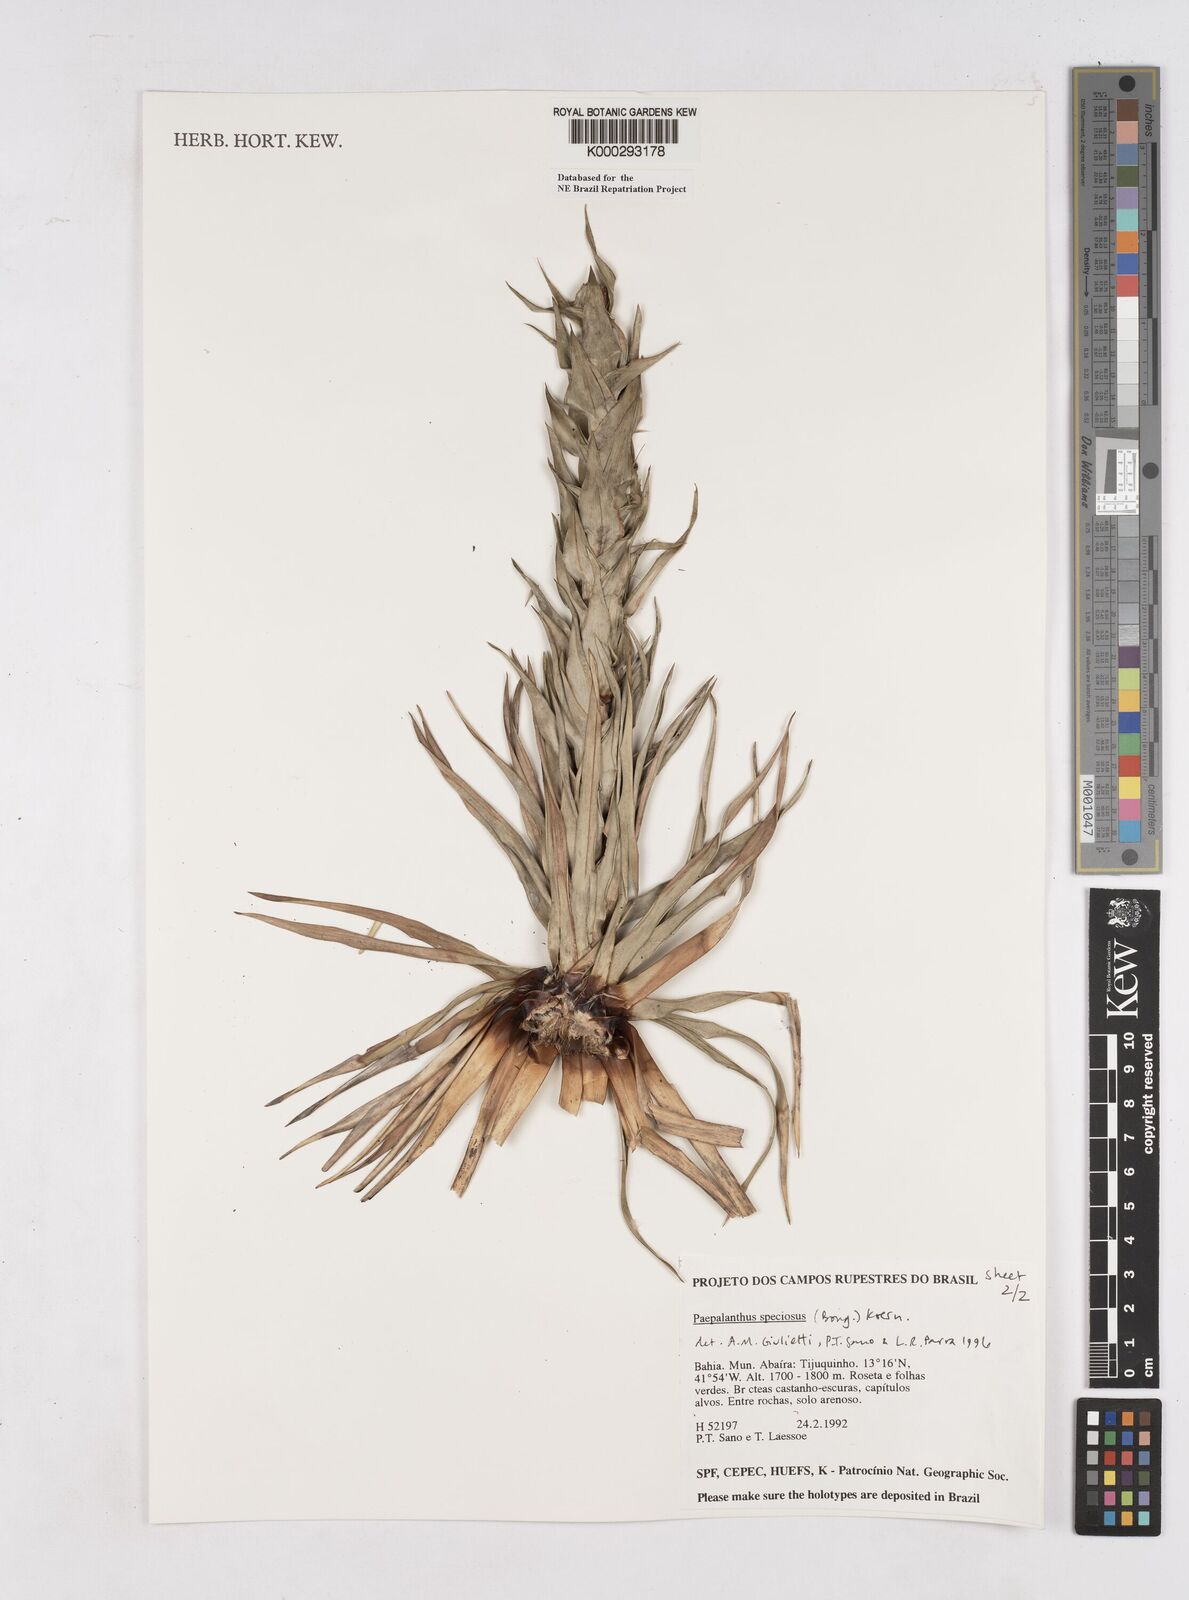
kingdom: Plantae
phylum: Tracheophyta
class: Liliopsida
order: Poales
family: Eriocaulaceae
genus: Paepalanthus
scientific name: Paepalanthus
